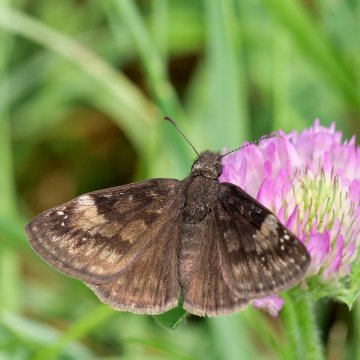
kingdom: Animalia
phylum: Arthropoda
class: Insecta
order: Lepidoptera
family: Hesperiidae
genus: Gesta
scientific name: Gesta
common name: Wild Indigo Duskywing
